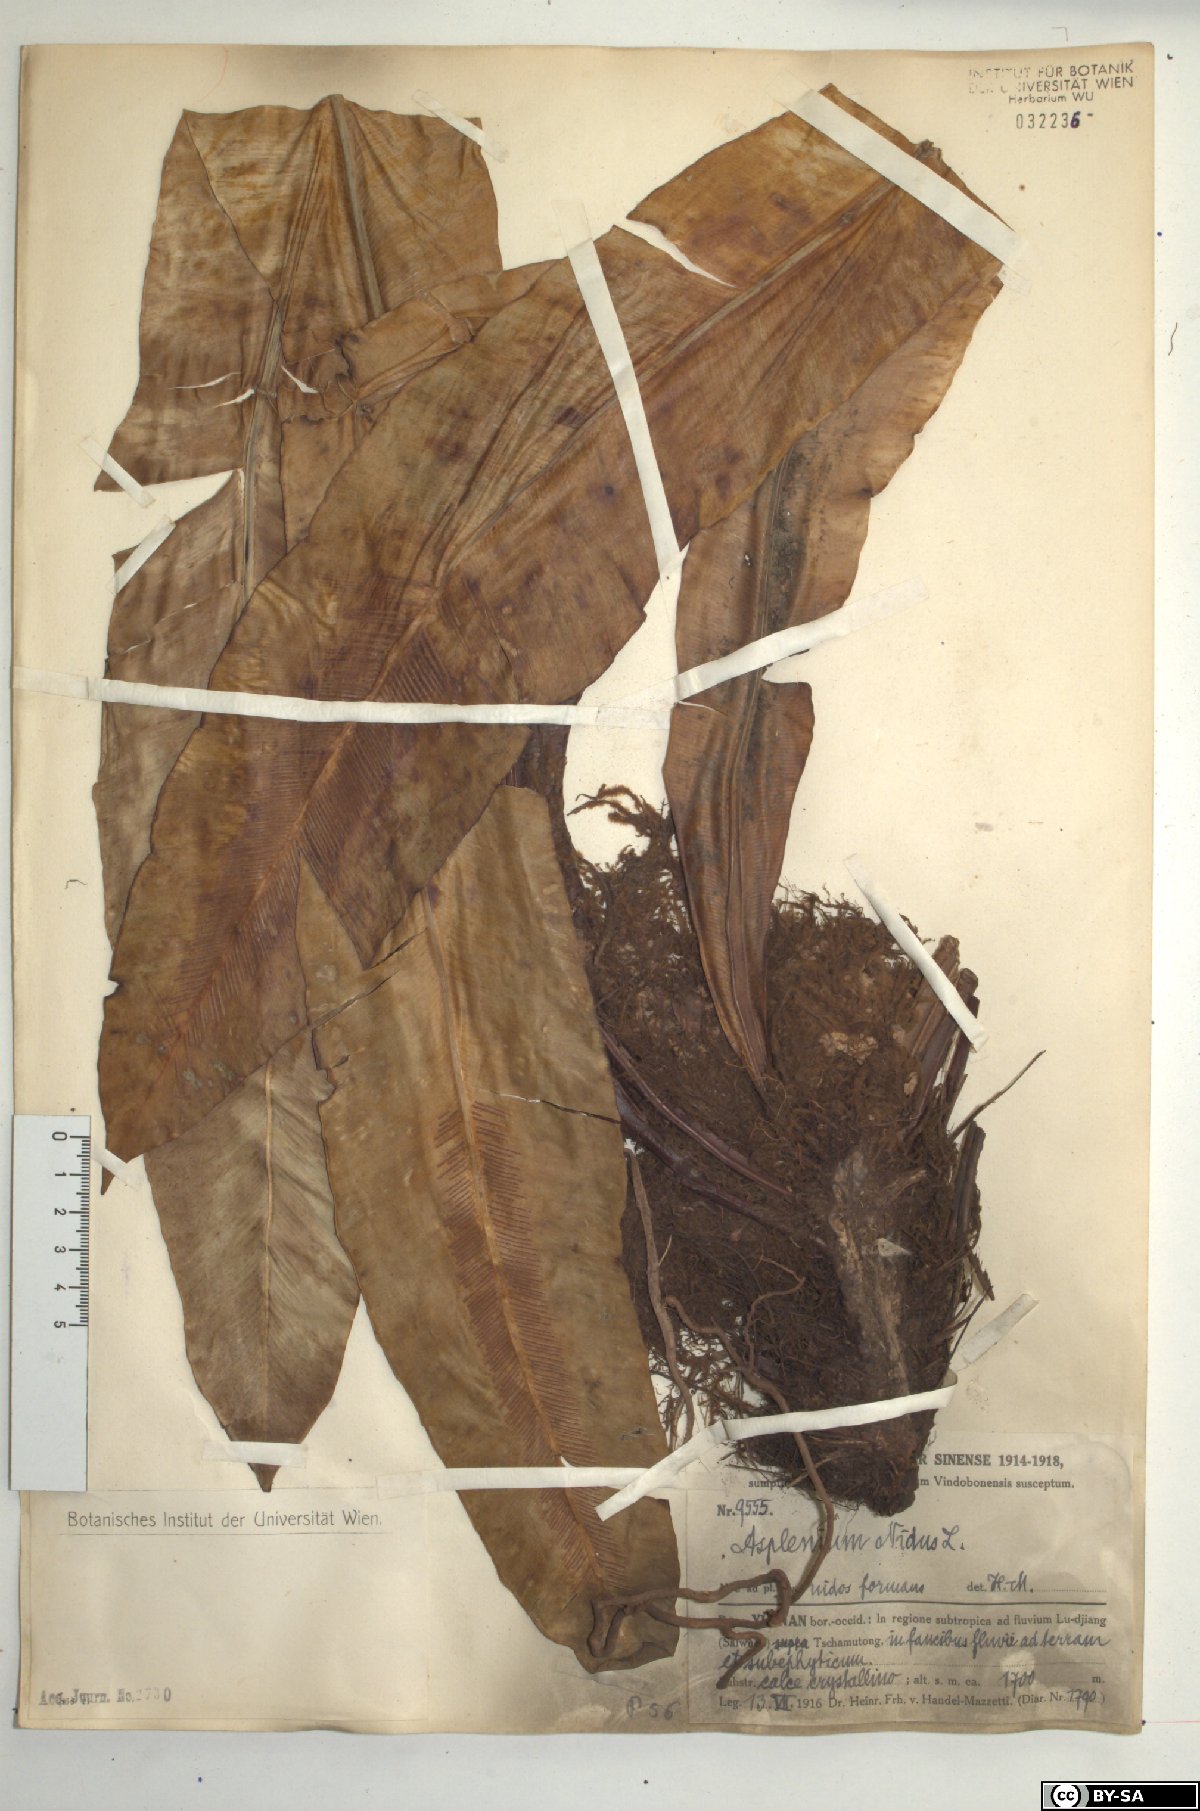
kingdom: Plantae
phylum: Tracheophyta
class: Polypodiopsida
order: Polypodiales
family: Aspleniaceae
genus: Asplenium
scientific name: Asplenium nidus
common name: Bird's-nest fern
